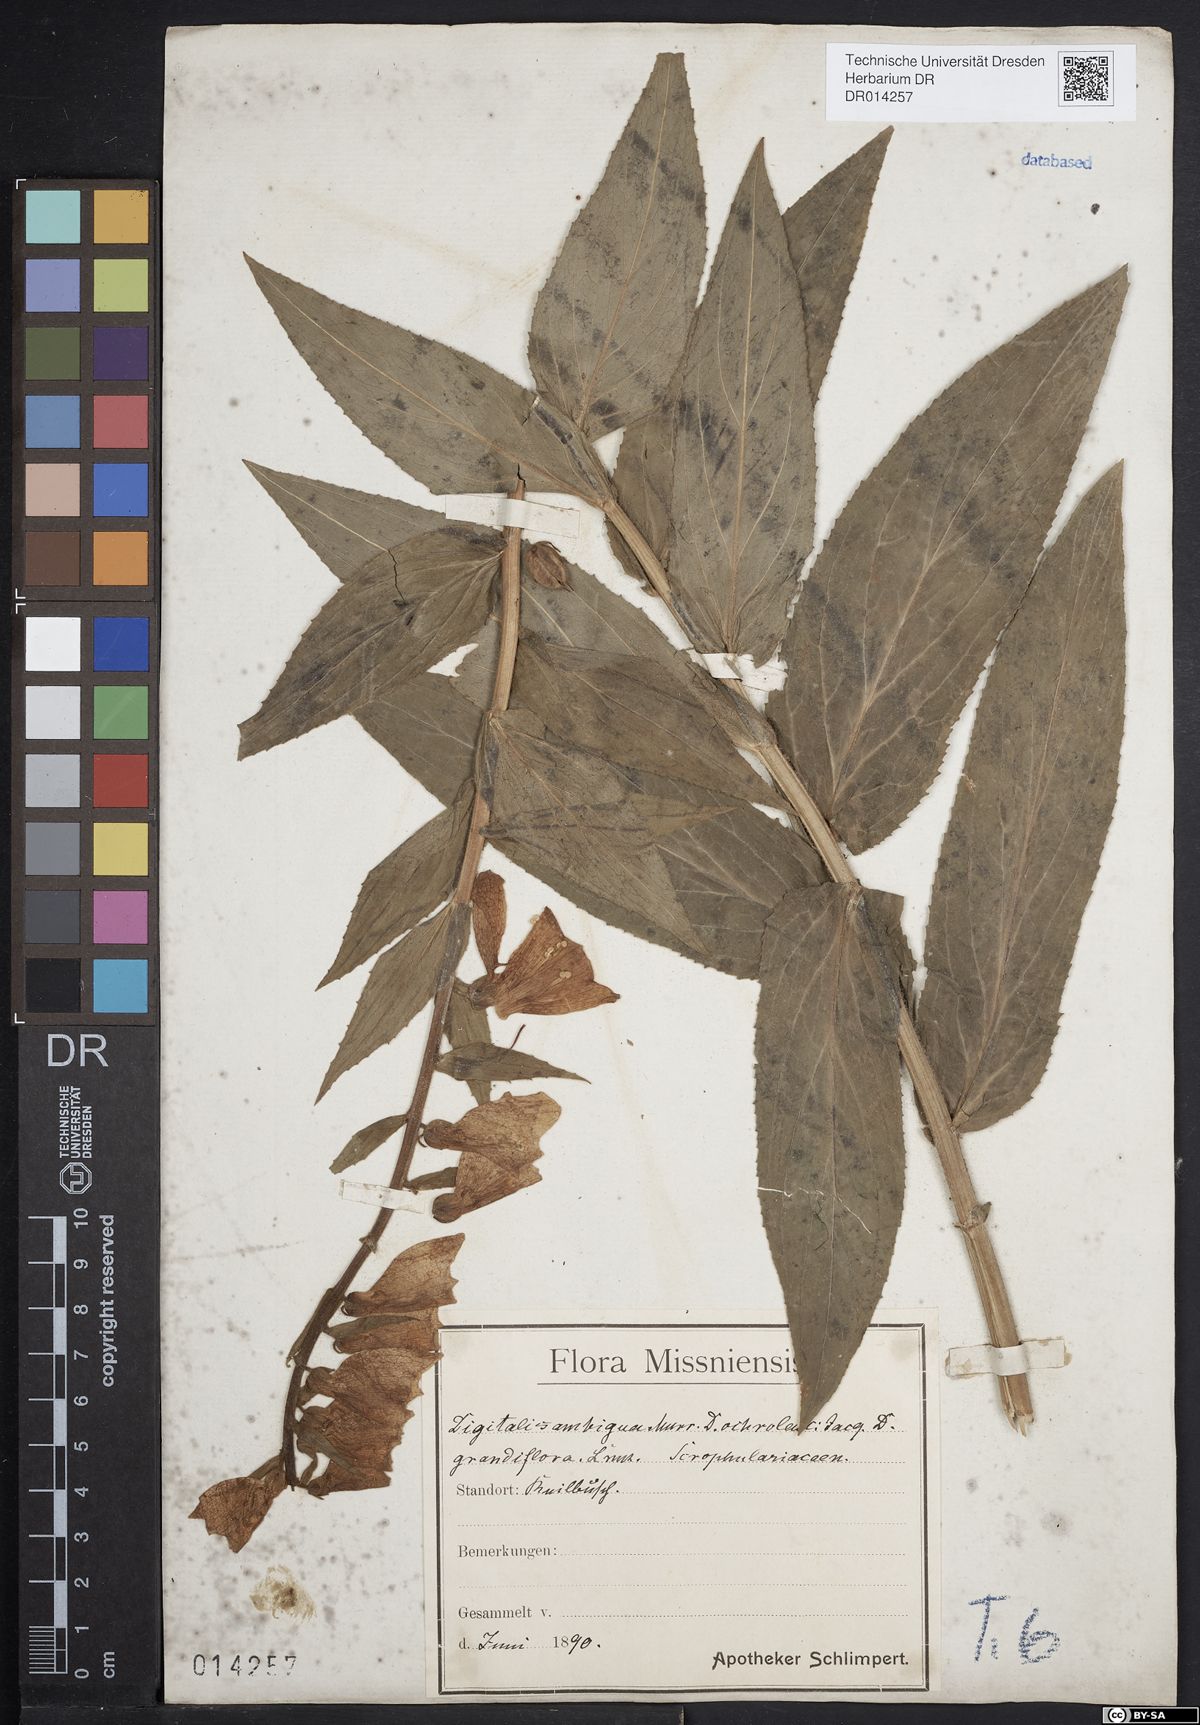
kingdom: Plantae
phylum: Tracheophyta
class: Magnoliopsida
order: Lamiales
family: Plantaginaceae
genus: Digitalis
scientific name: Digitalis grandiflora
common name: Yellow foxglove
